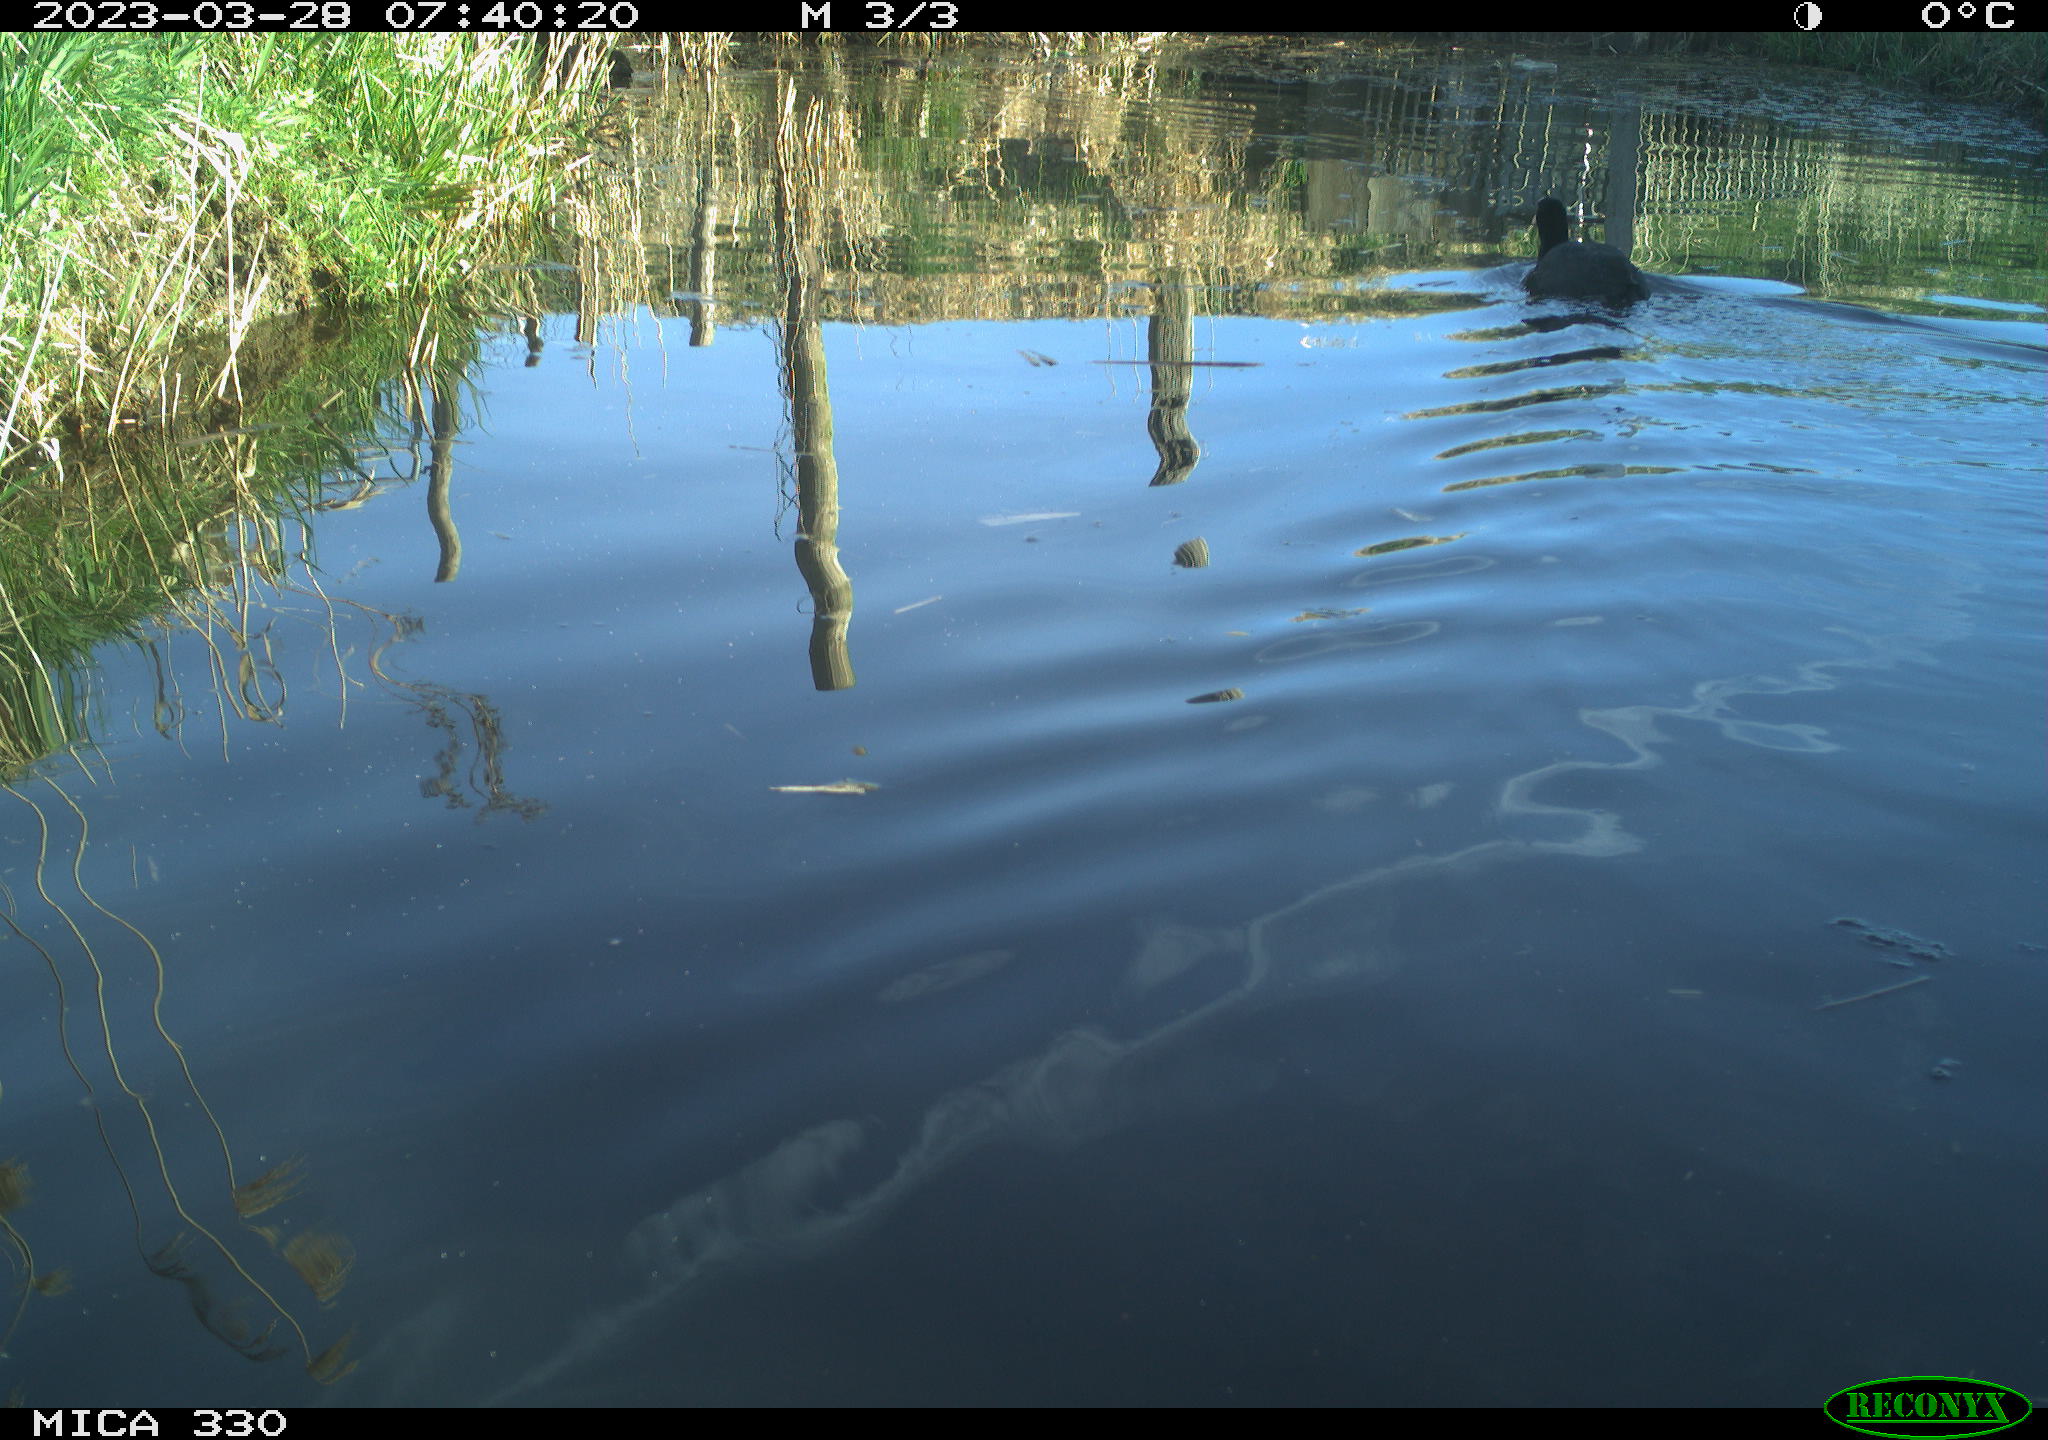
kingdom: Animalia
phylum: Chordata
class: Aves
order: Gruiformes
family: Rallidae
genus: Fulica
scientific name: Fulica atra
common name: Eurasian coot
